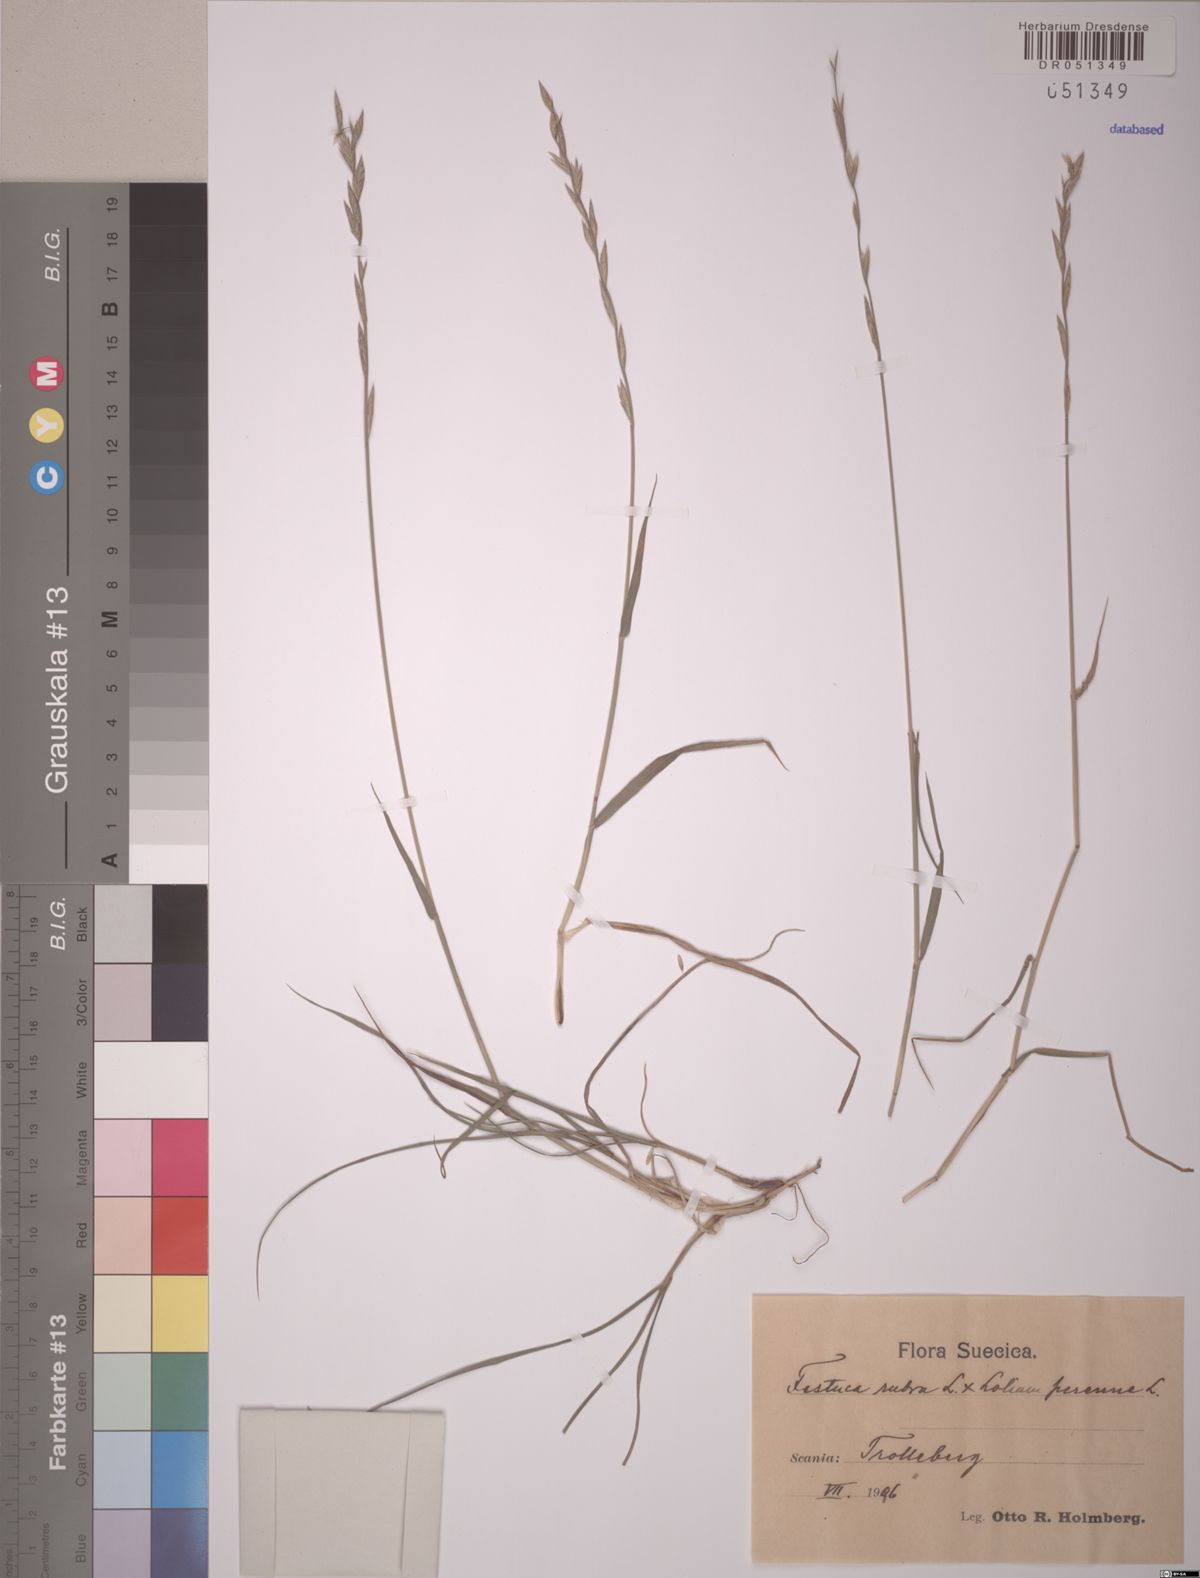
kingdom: Plantae
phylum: Tracheophyta
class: Liliopsida
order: Poales
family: Poaceae
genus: Festuca
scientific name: Festuca rubra
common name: Red fescue
